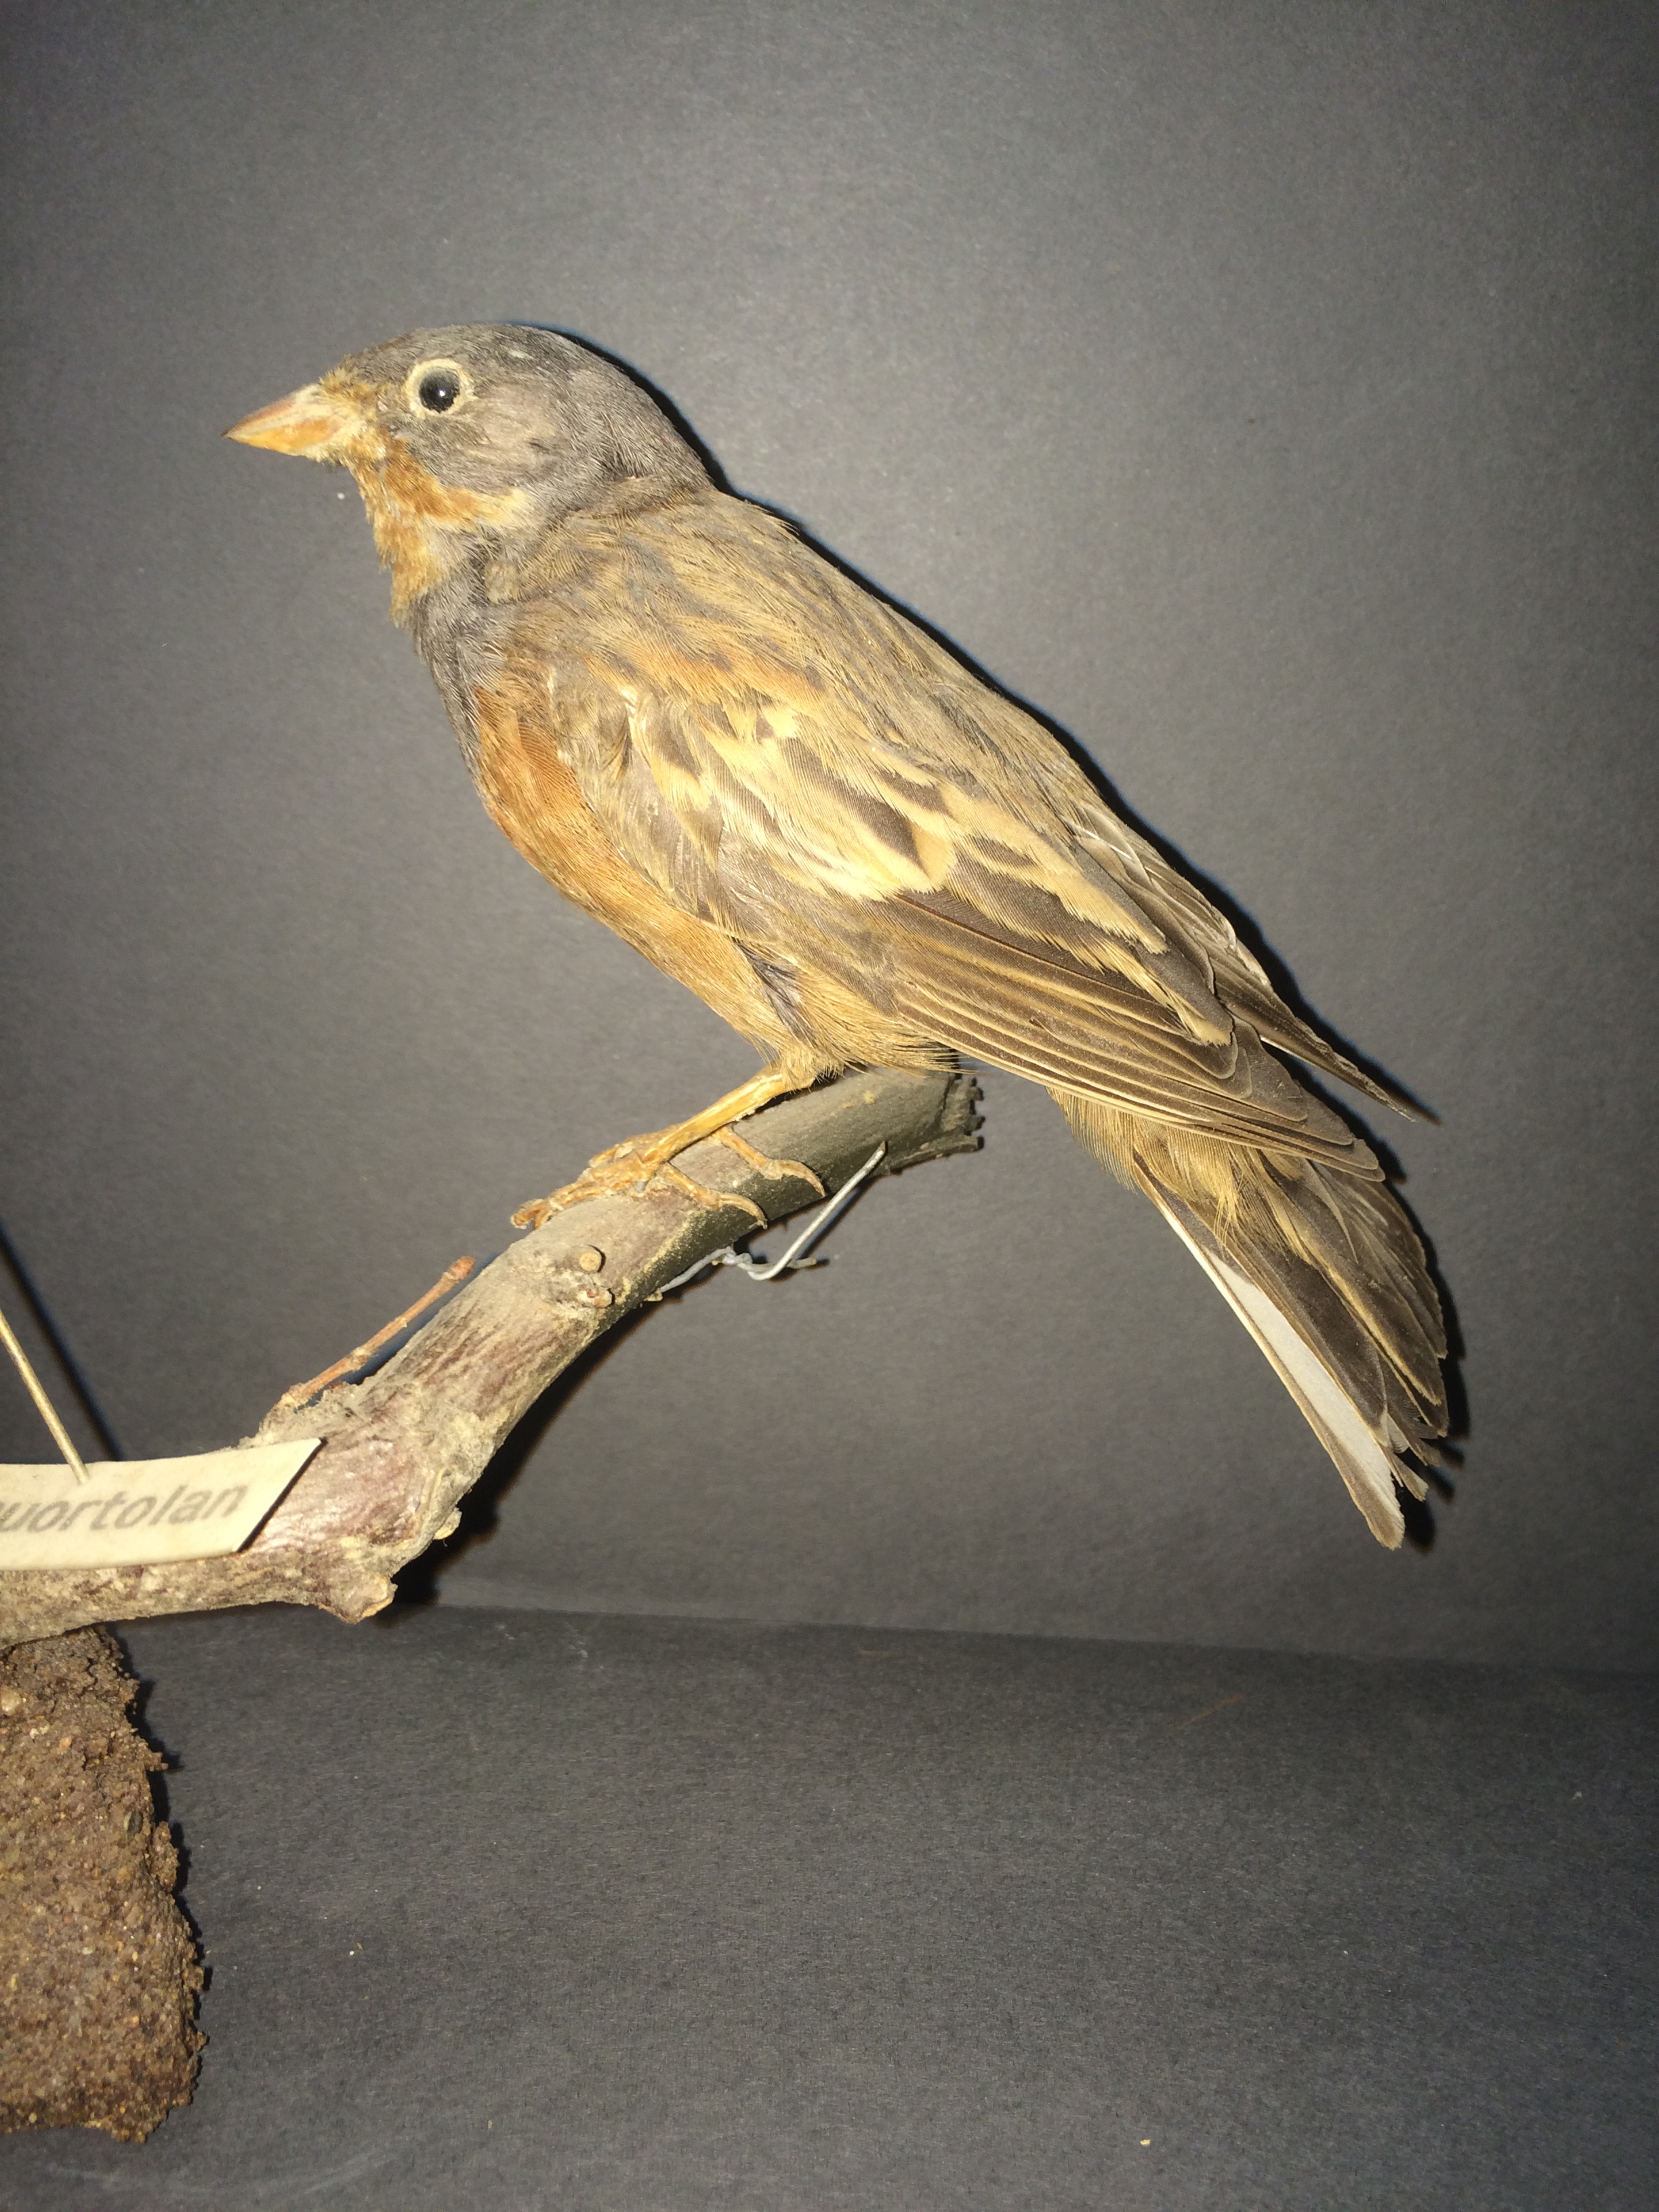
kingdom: Animalia
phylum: Chordata
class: Aves
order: Passeriformes
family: Emberizidae
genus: Emberiza
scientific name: Emberiza caesia
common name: Cretzschmar's bunting
